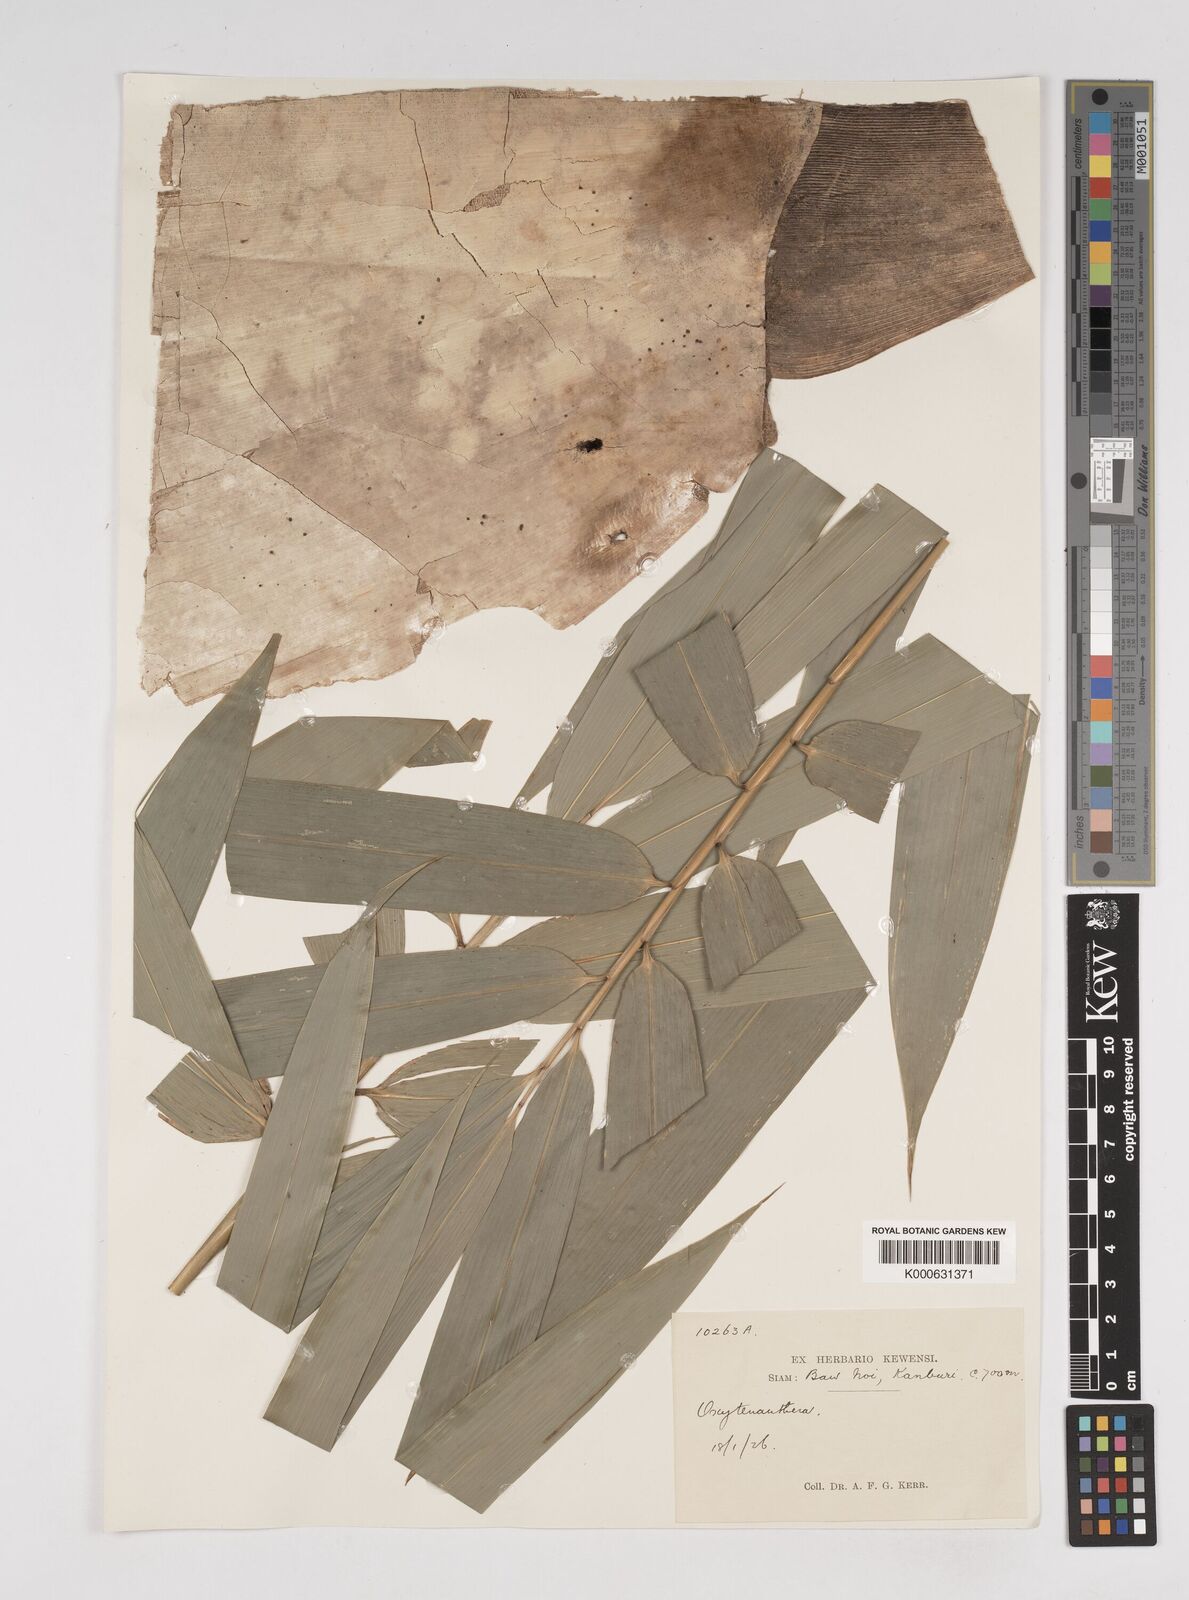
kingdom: Plantae
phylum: Tracheophyta
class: Liliopsida
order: Poales
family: Poaceae
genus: Dendrocalamus
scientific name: Dendrocalamus
